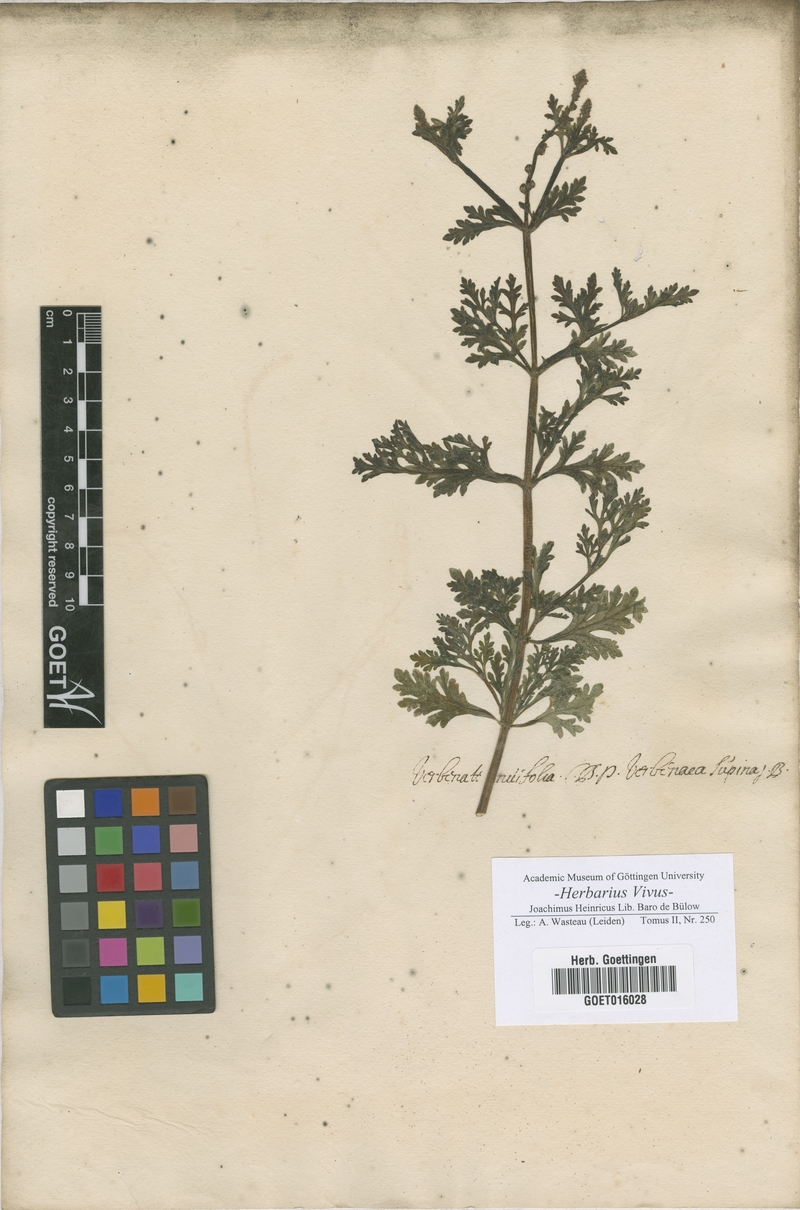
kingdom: Plantae
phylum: Tracheophyta
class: Magnoliopsida
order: Lamiales
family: Verbenaceae
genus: Verbena
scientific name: Verbena supina
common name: Trailing vervain
